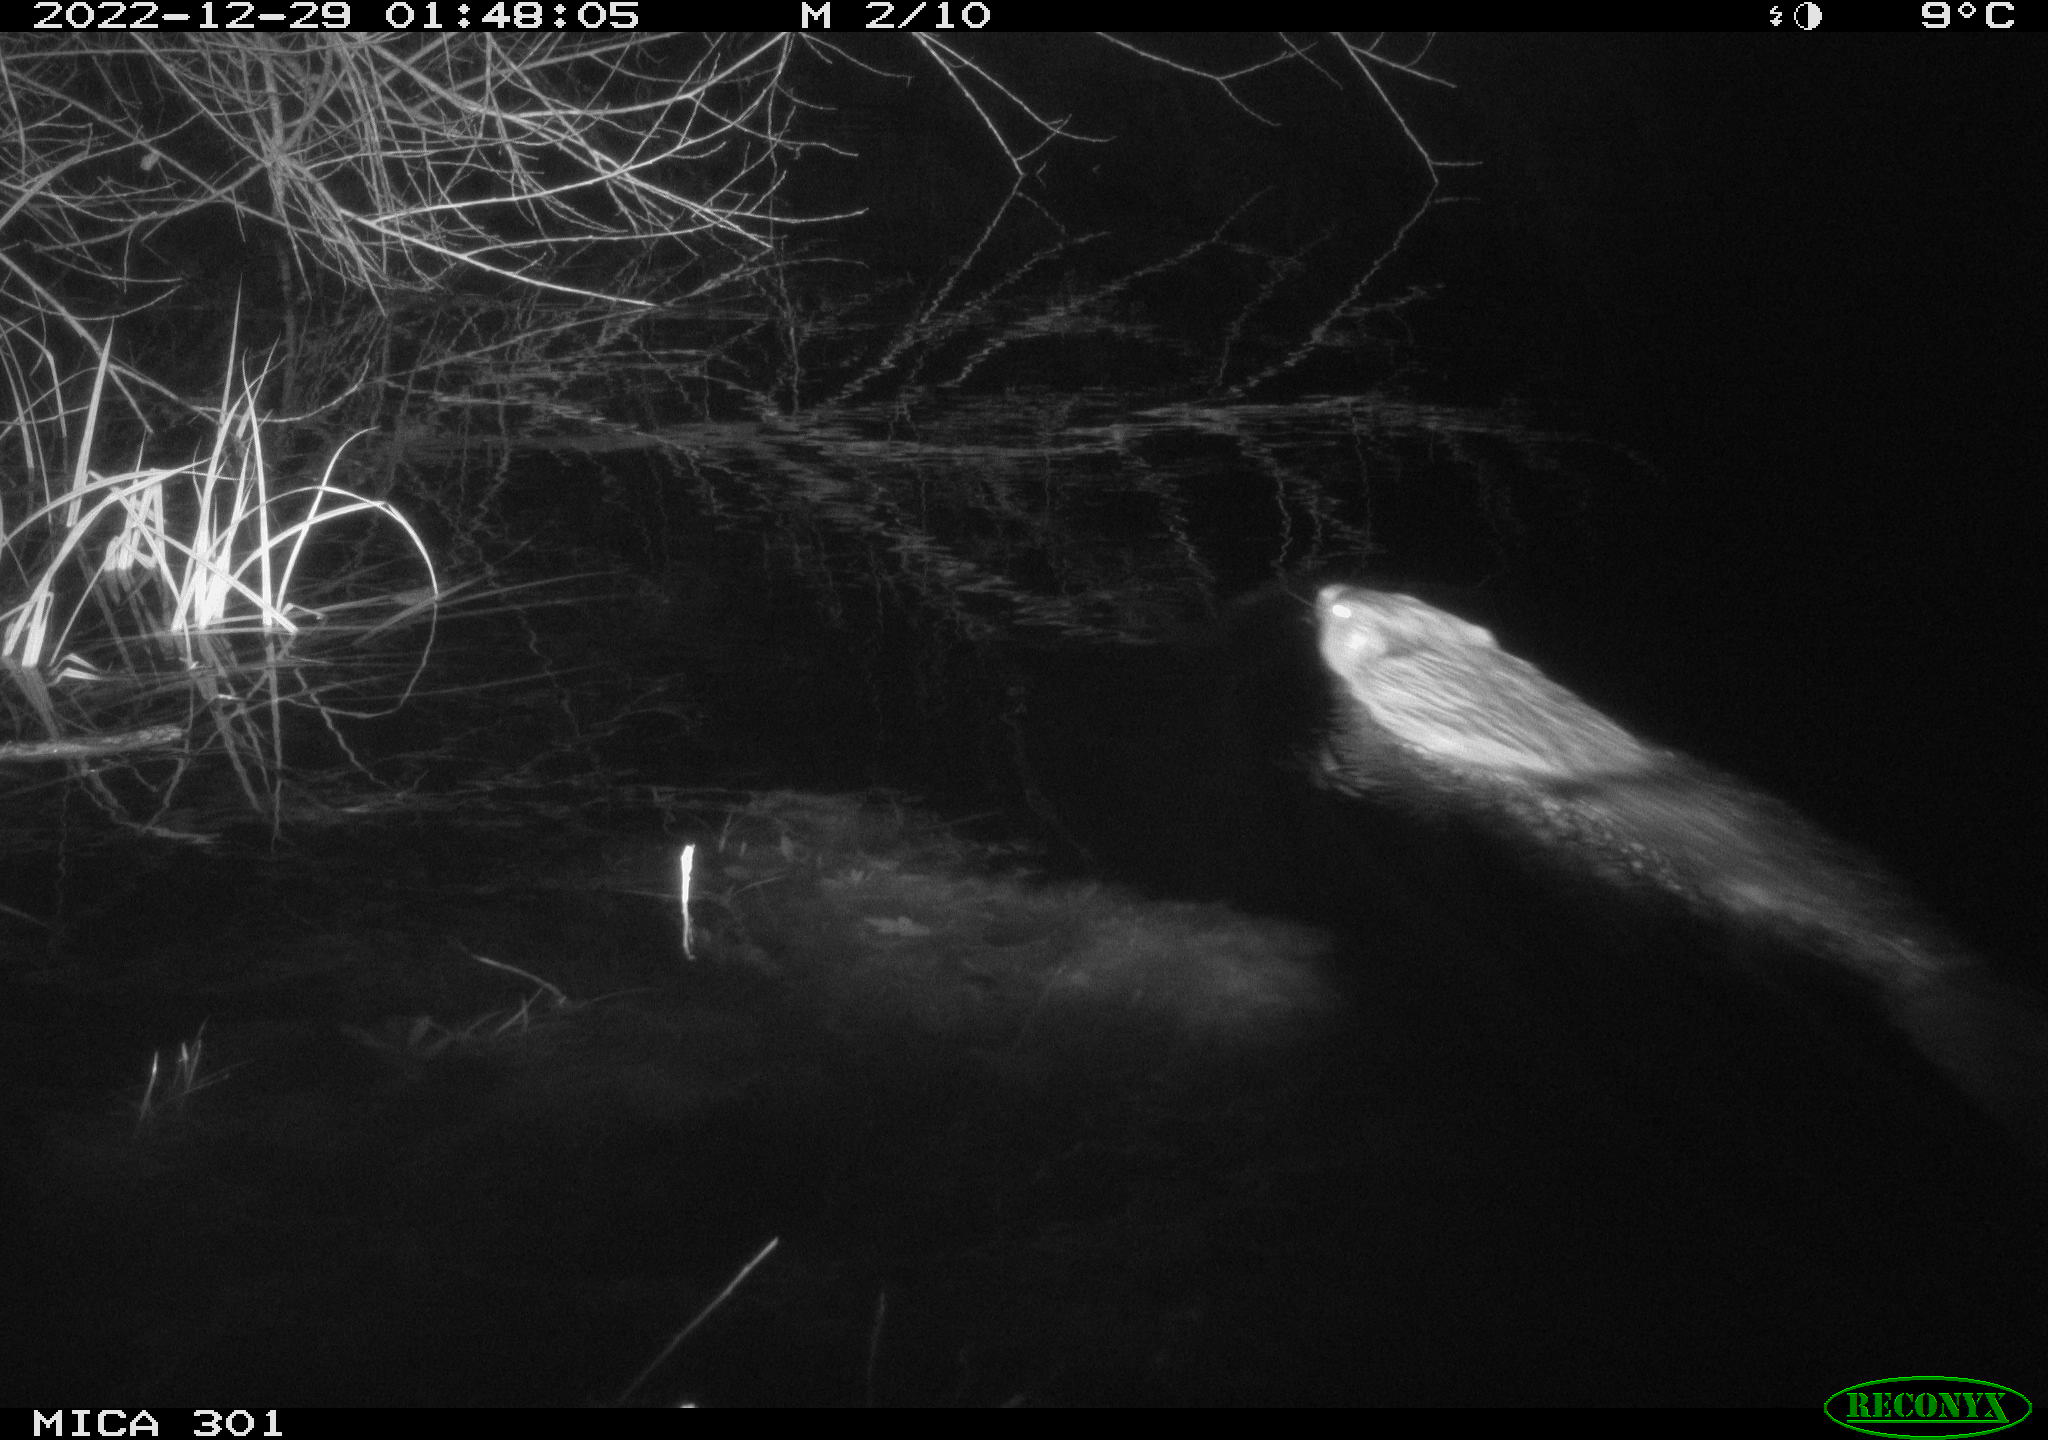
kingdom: Animalia
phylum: Chordata
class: Mammalia
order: Rodentia
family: Castoridae
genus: Castor
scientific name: Castor fiber
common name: Eurasian beaver
